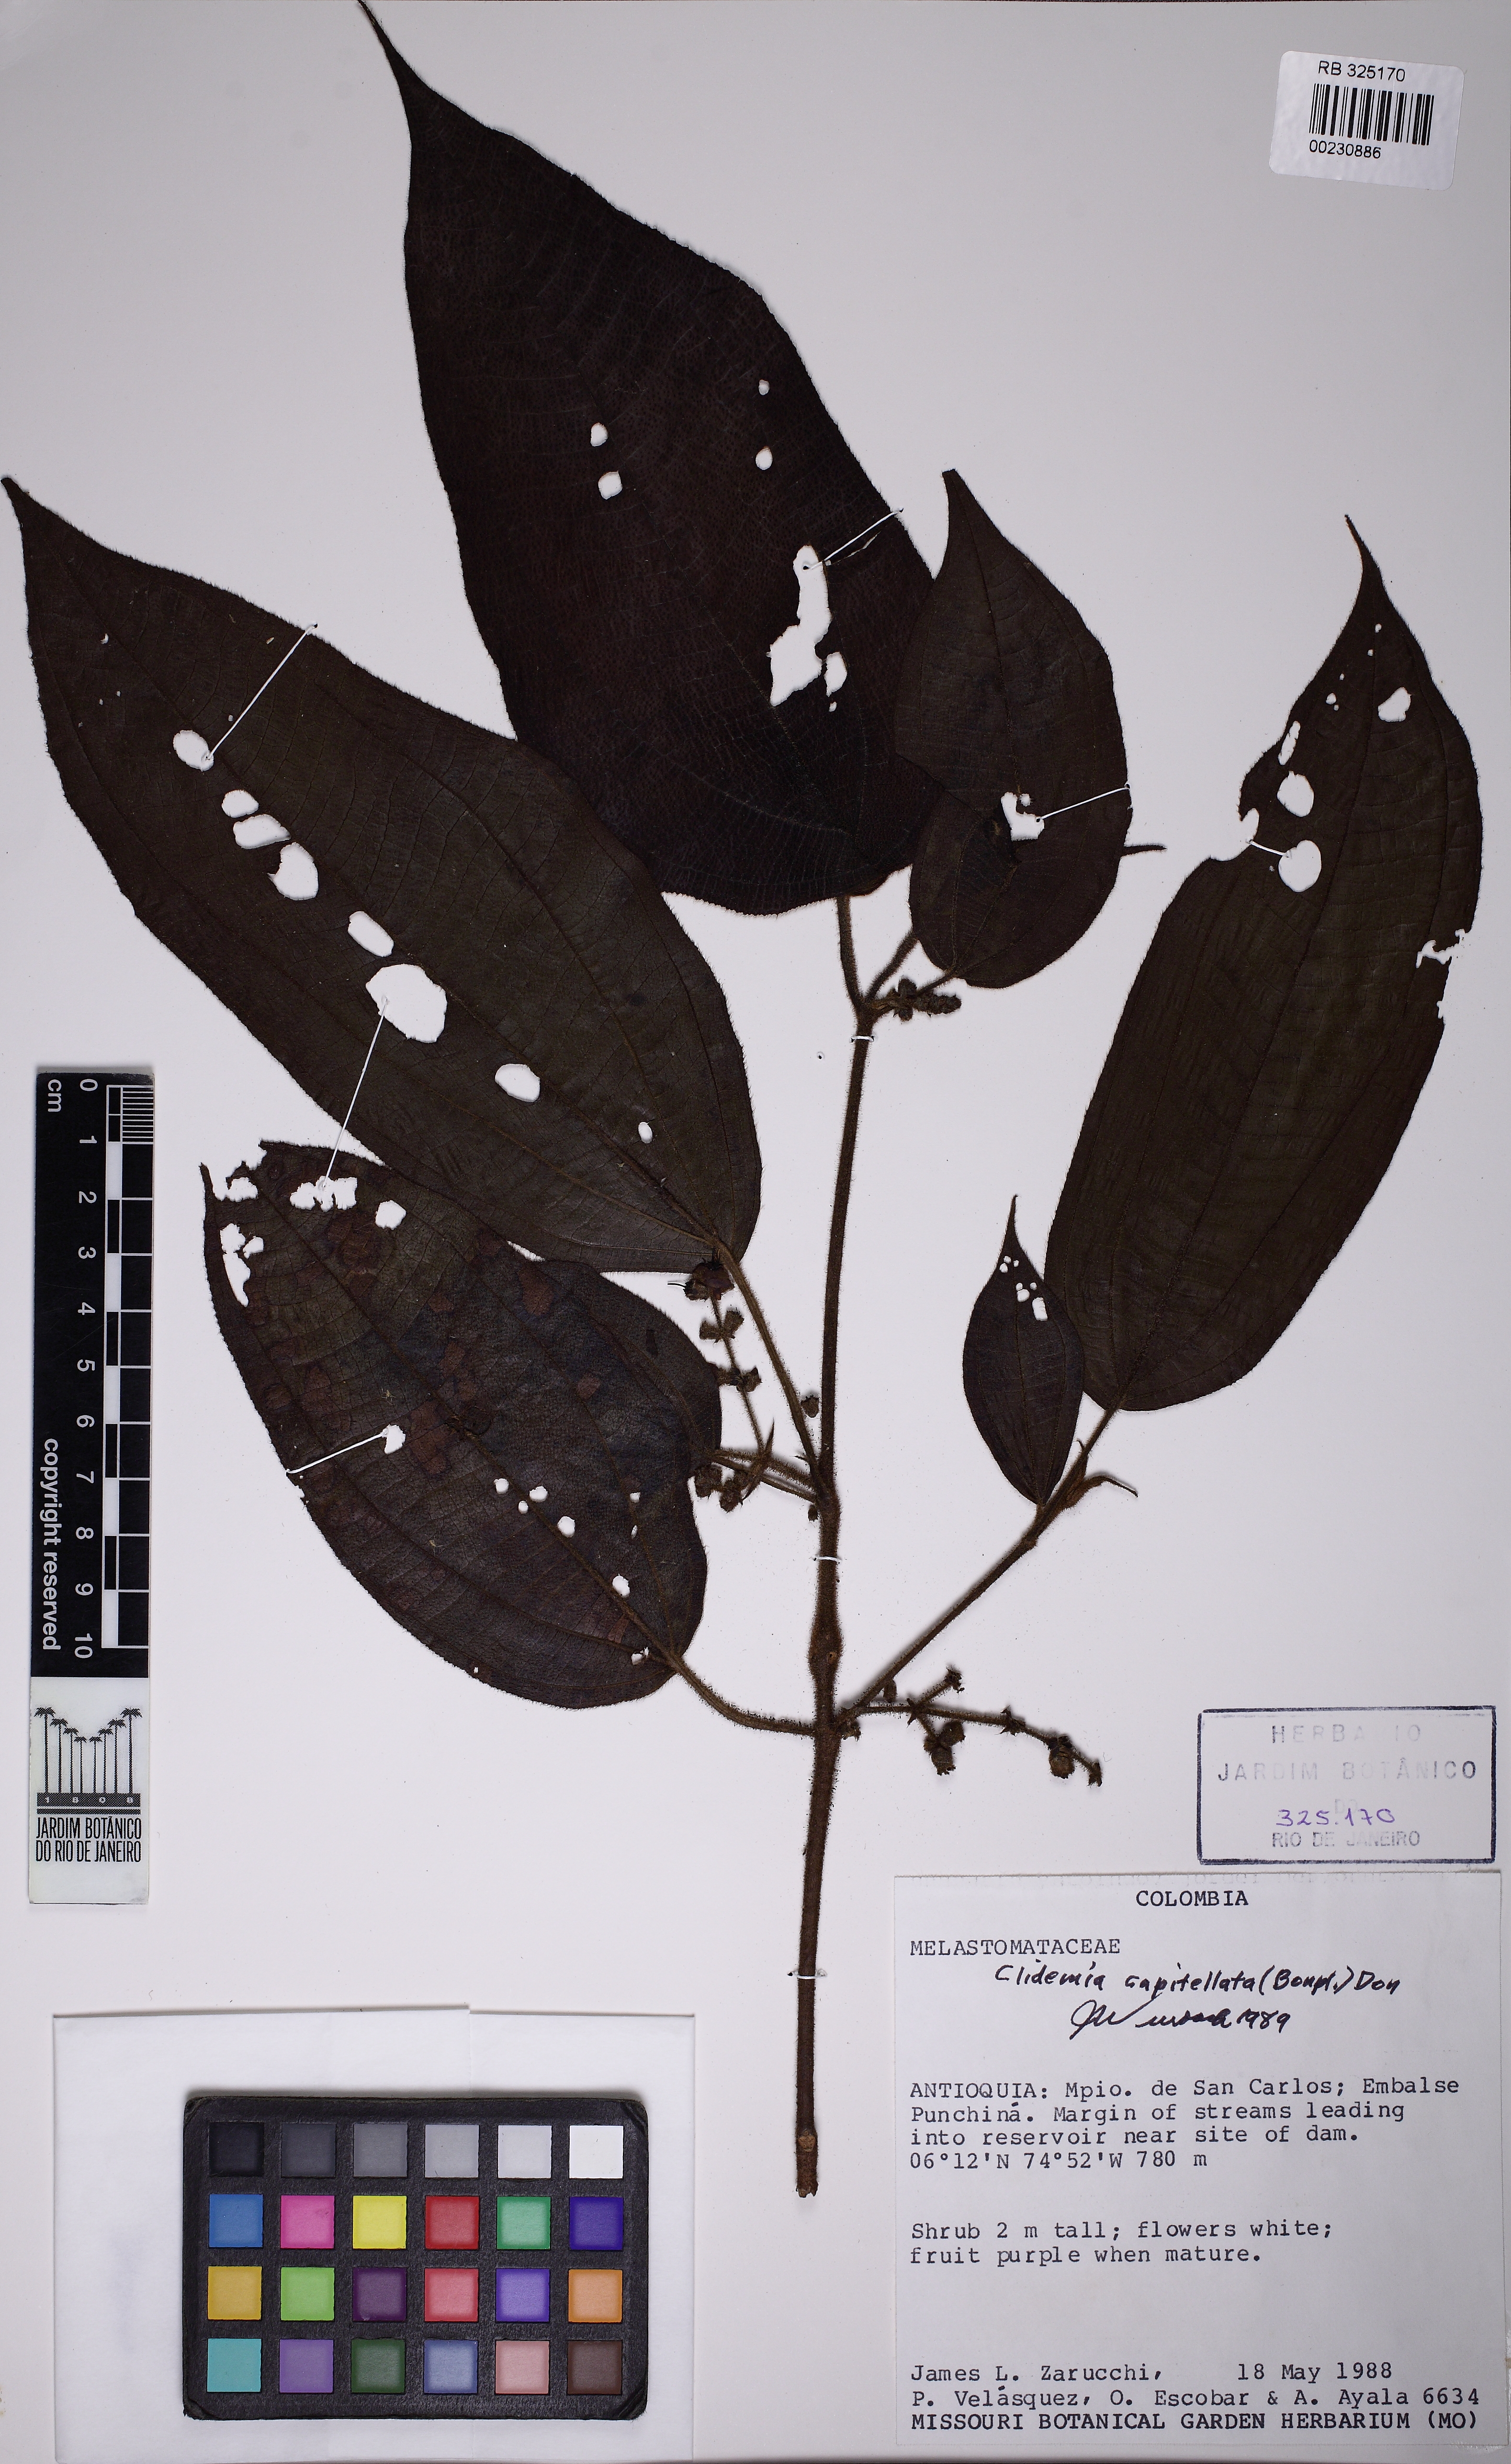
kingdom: Plantae
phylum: Tracheophyta
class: Magnoliopsida
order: Myrtales
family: Melastomataceae
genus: Miconia
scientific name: Miconia dependens
